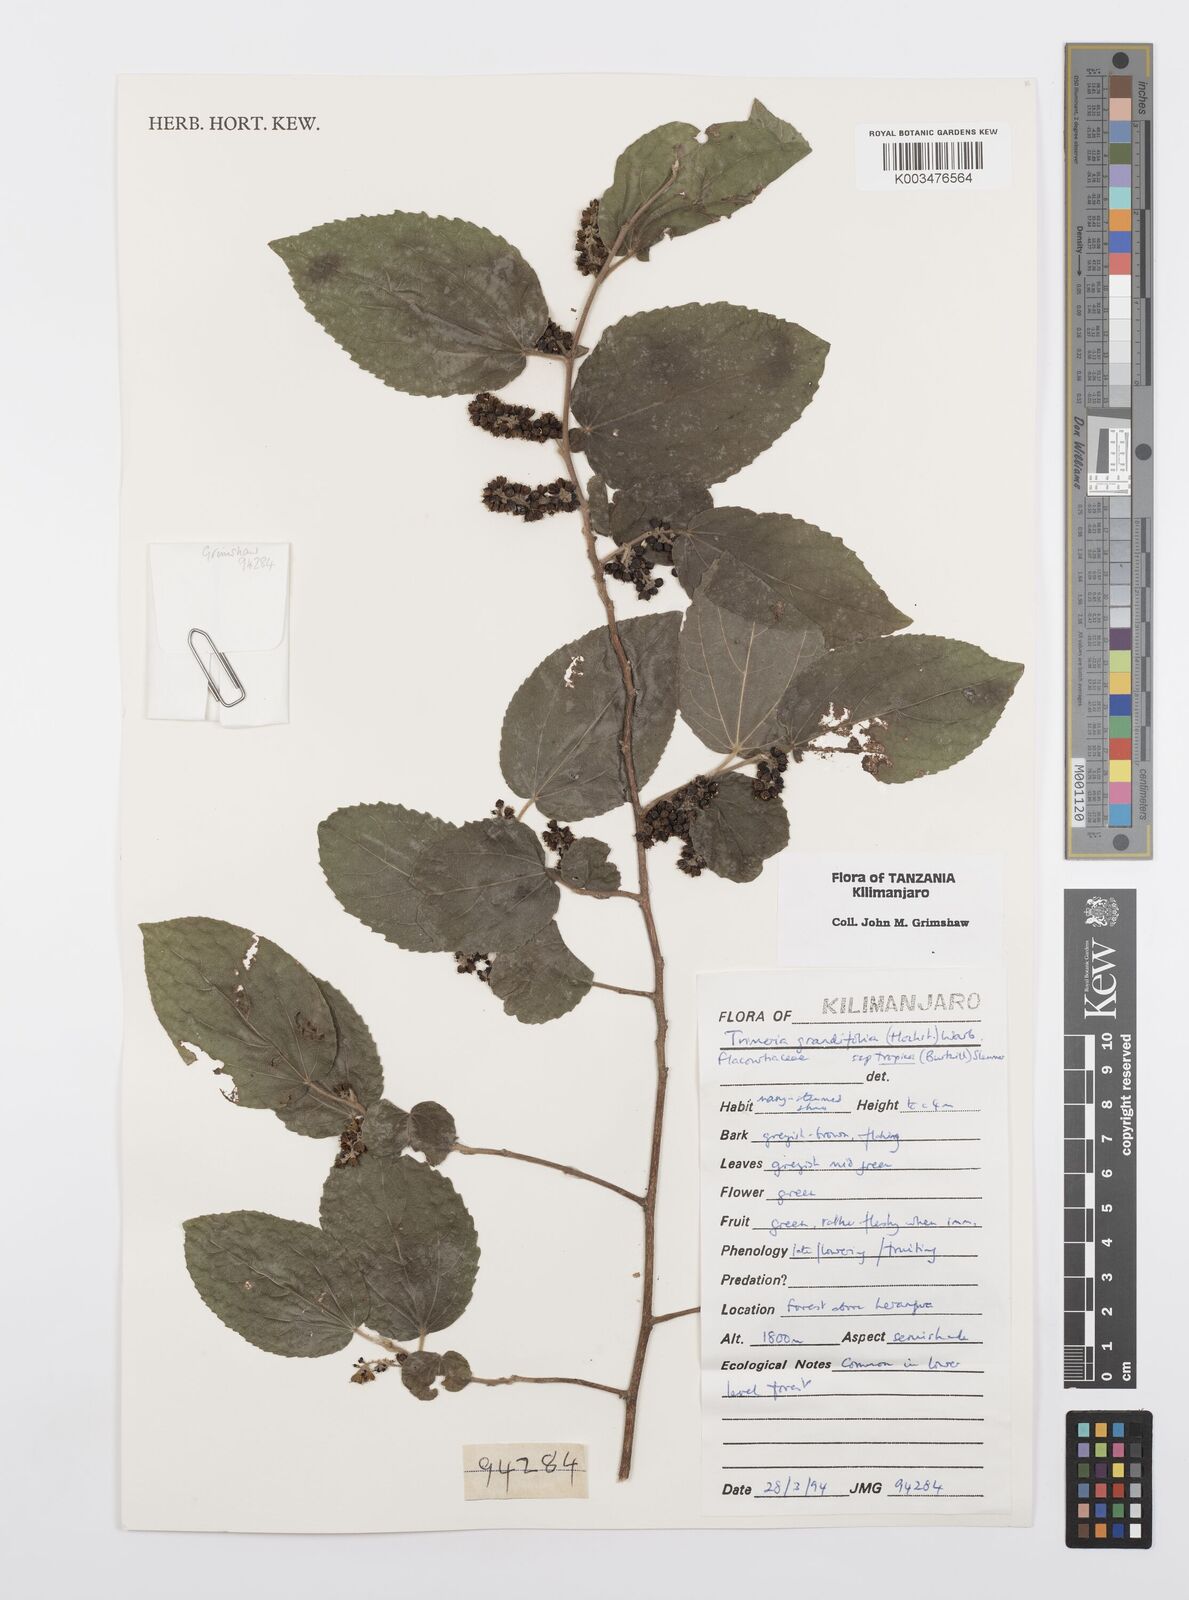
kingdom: Plantae
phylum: Tracheophyta
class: Magnoliopsida
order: Malpighiales
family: Salicaceae
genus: Trimeria
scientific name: Trimeria grandifolia
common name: Wild mulberry
